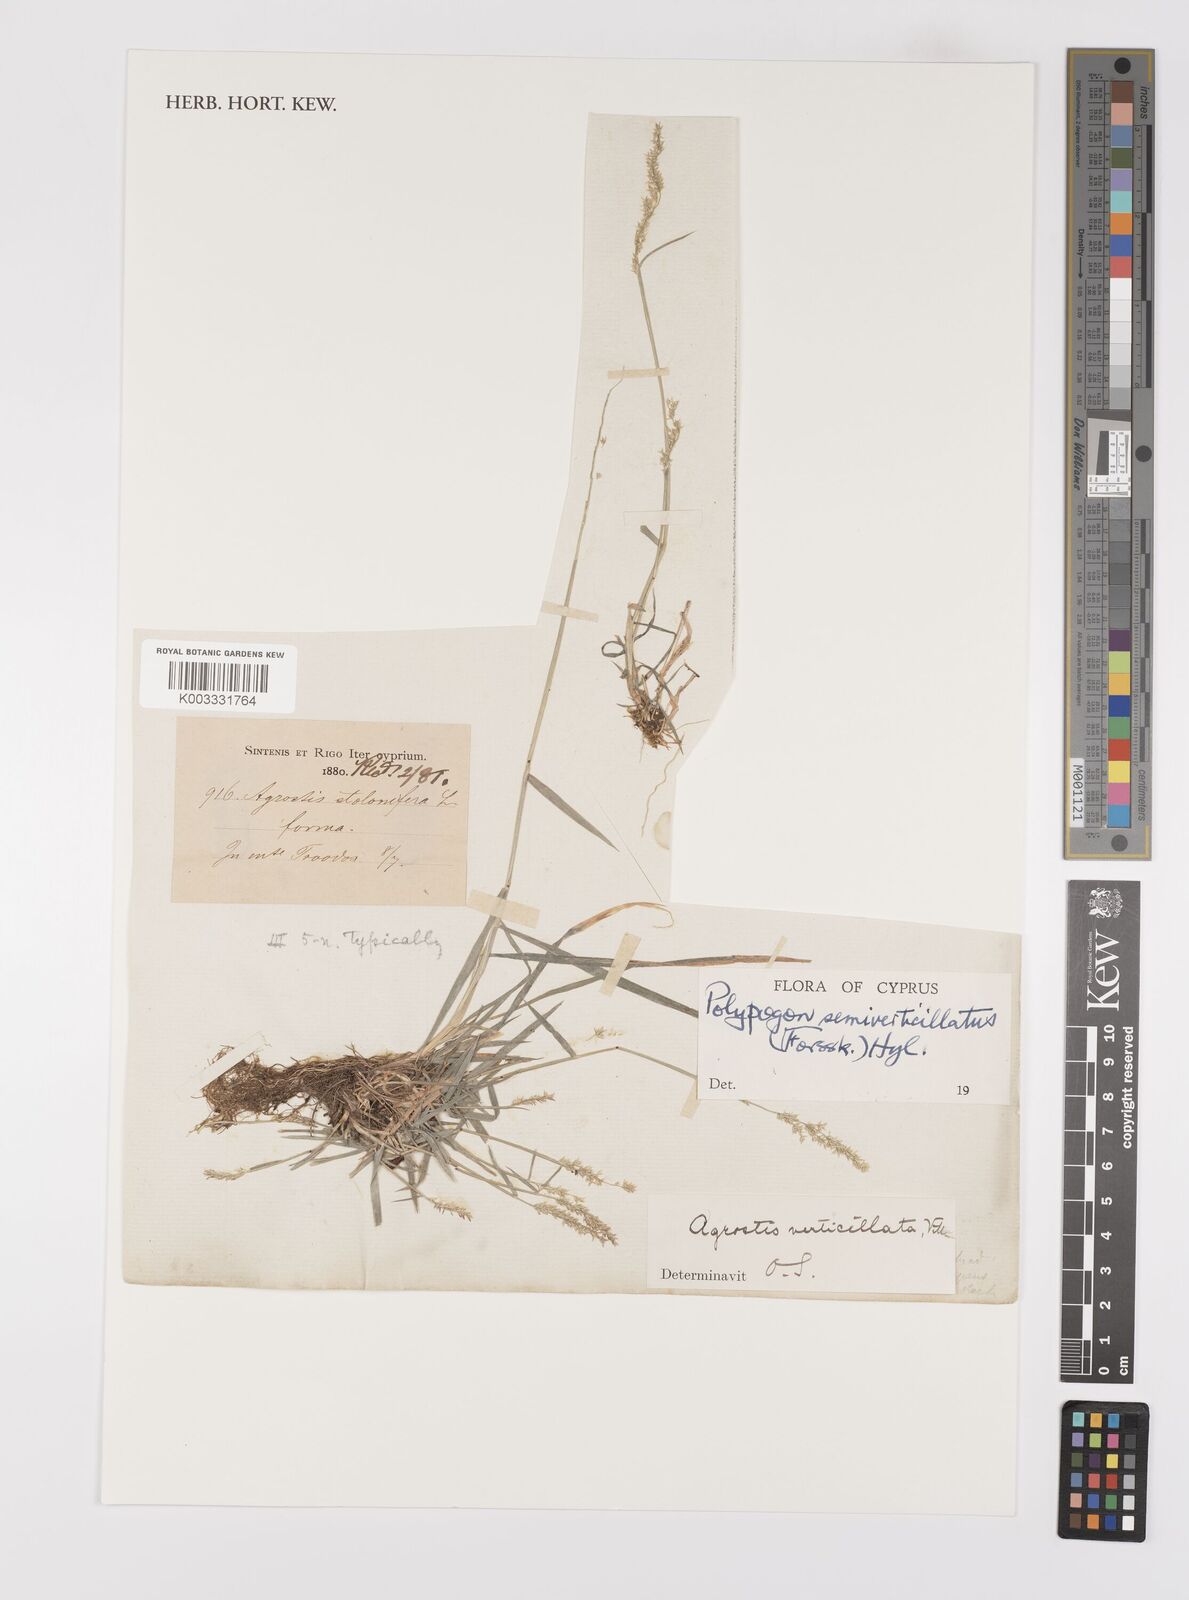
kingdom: Plantae
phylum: Tracheophyta
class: Liliopsida
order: Poales
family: Poaceae
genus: Polypogon
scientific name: Polypogon viridis
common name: Water bent
